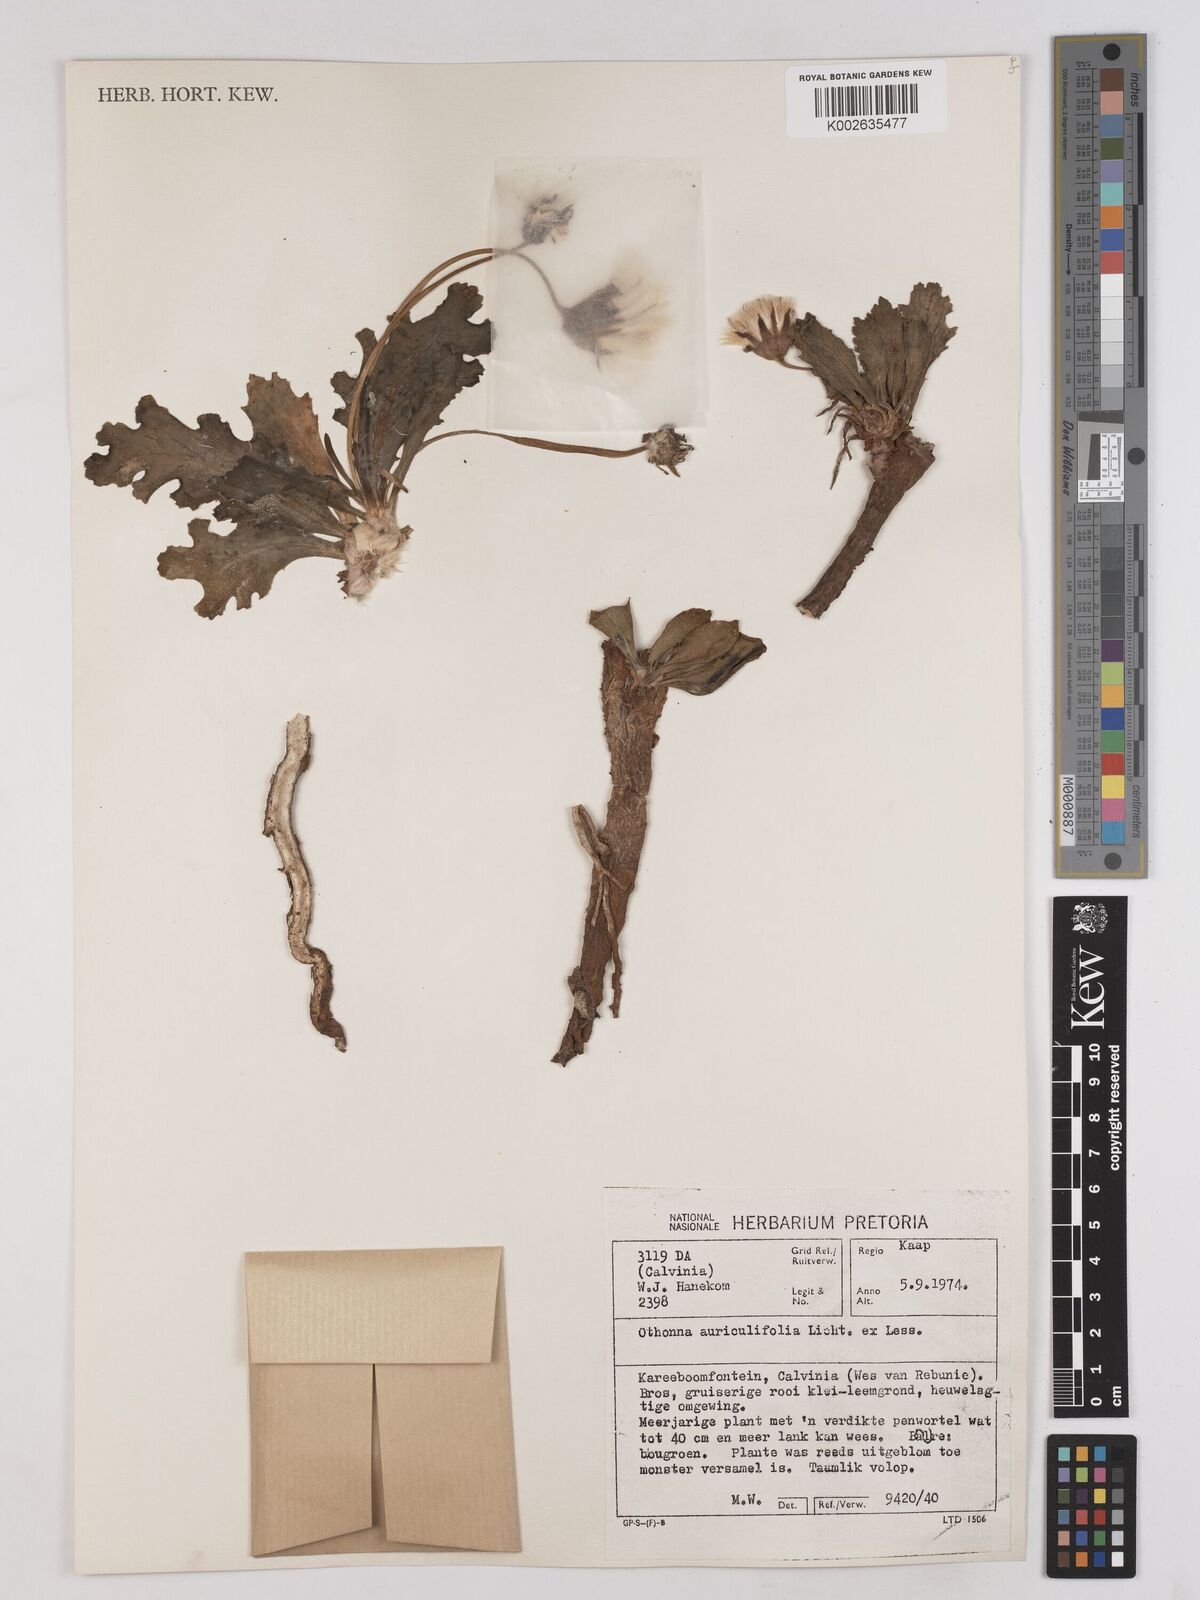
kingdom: Plantae
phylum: Tracheophyta
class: Magnoliopsida
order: Asterales
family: Asteraceae
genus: Othonna
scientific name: Othonna auriculifolia
